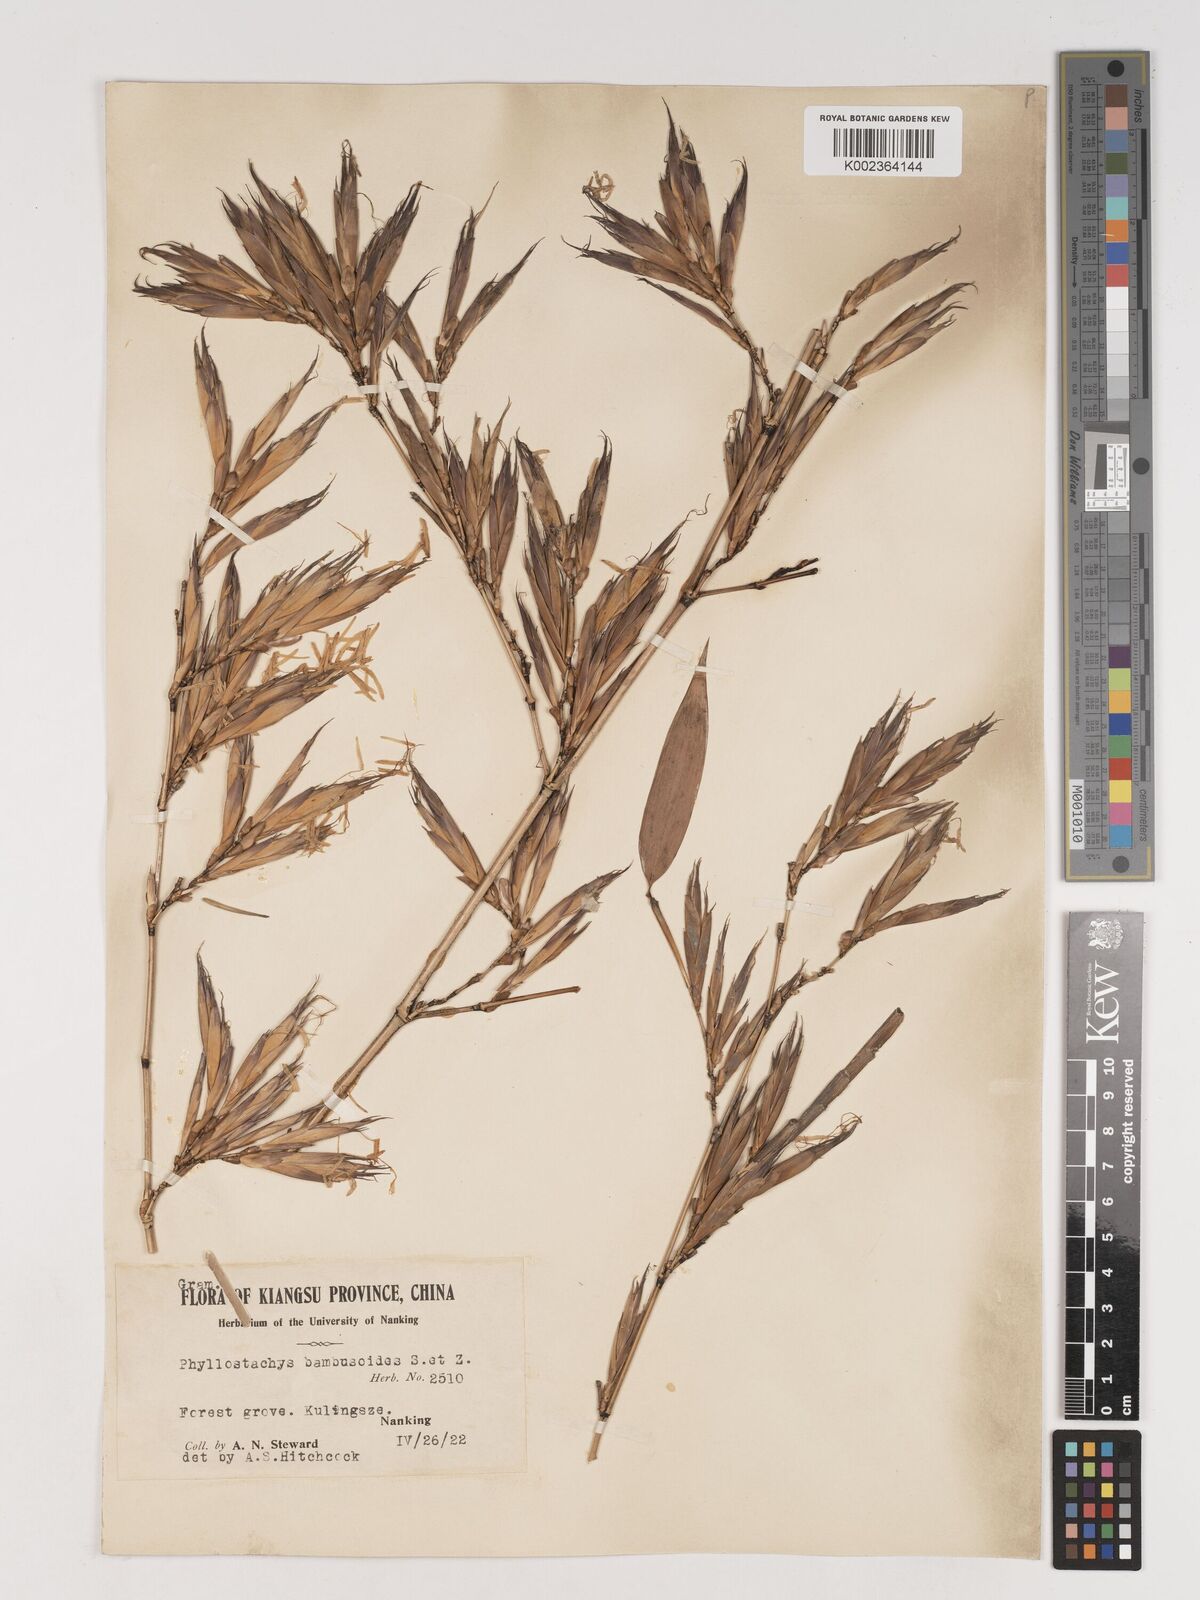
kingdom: Plantae
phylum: Tracheophyta
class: Liliopsida
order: Poales
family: Poaceae
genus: Phyllostachys
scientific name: Phyllostachys reticulata
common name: Bamboo
